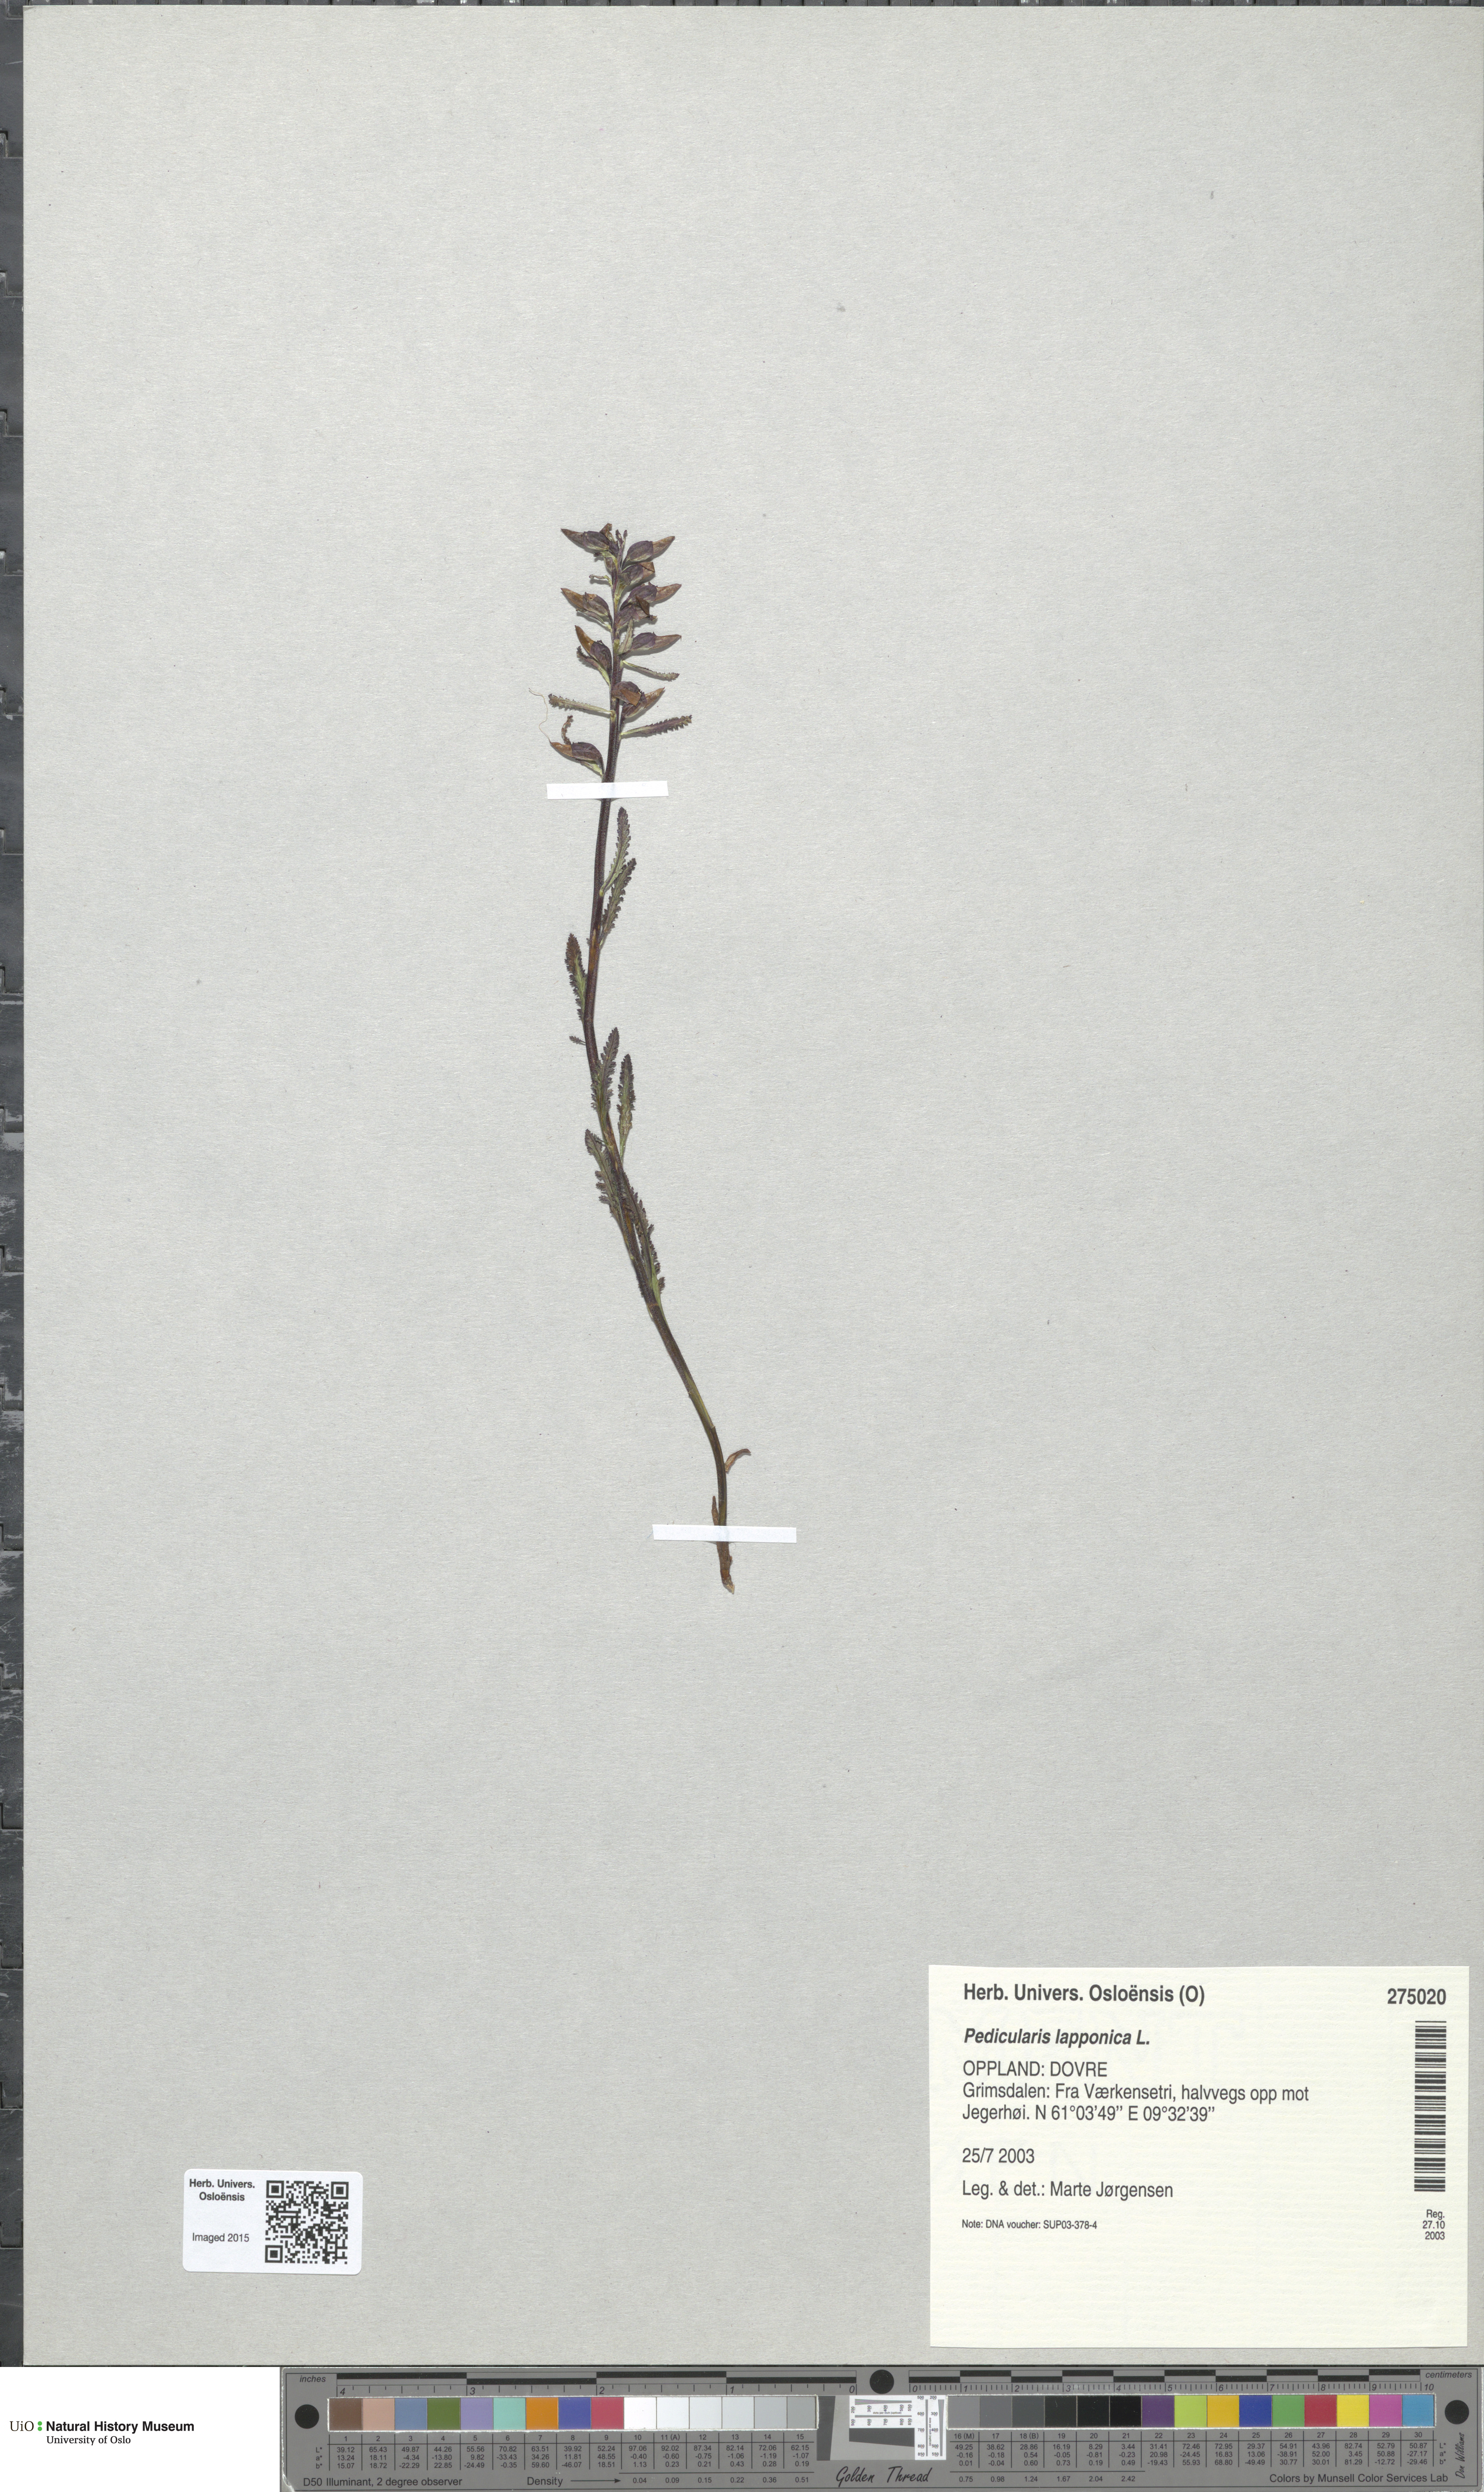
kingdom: Plantae
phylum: Tracheophyta
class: Magnoliopsida
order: Lamiales
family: Orobanchaceae
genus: Pedicularis
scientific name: Pedicularis lapponica
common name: Lapland lousewort
